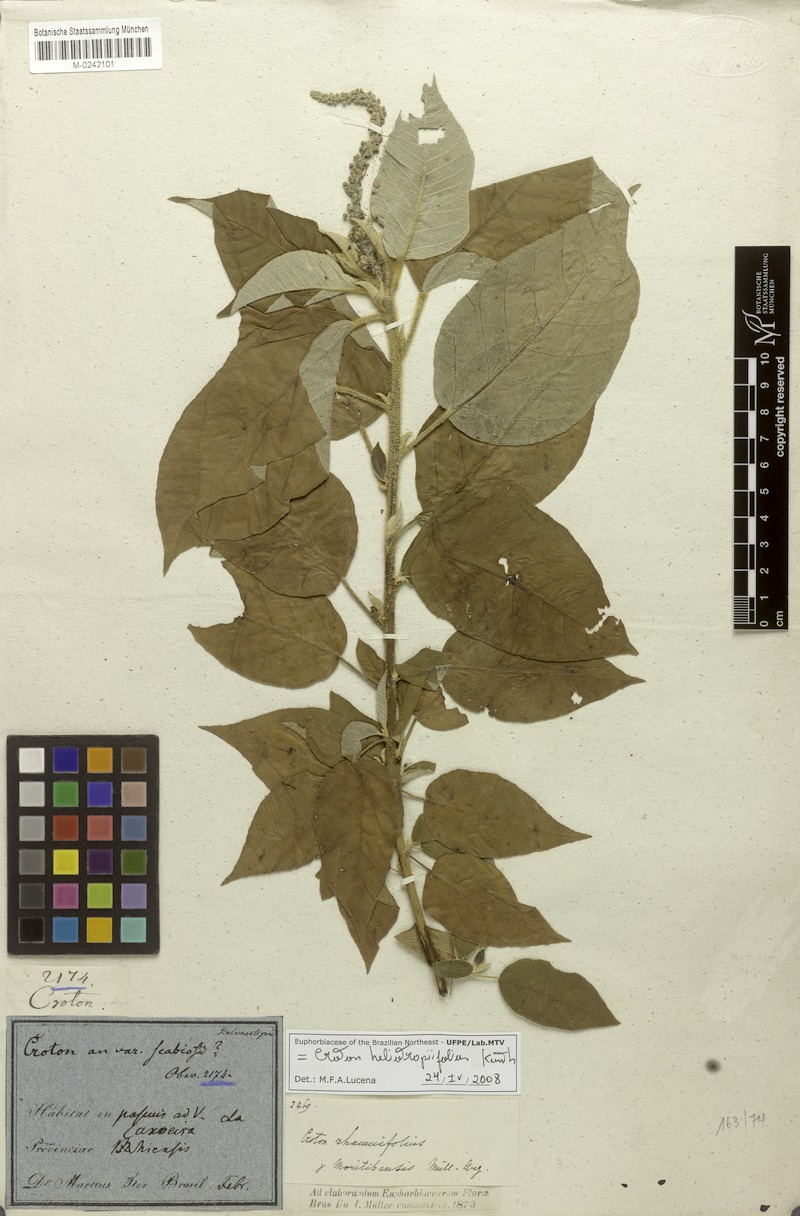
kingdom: Plantae
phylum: Tracheophyta
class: Magnoliopsida
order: Malpighiales
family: Euphorbiaceae
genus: Croton
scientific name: Croton heliotropiifolius
